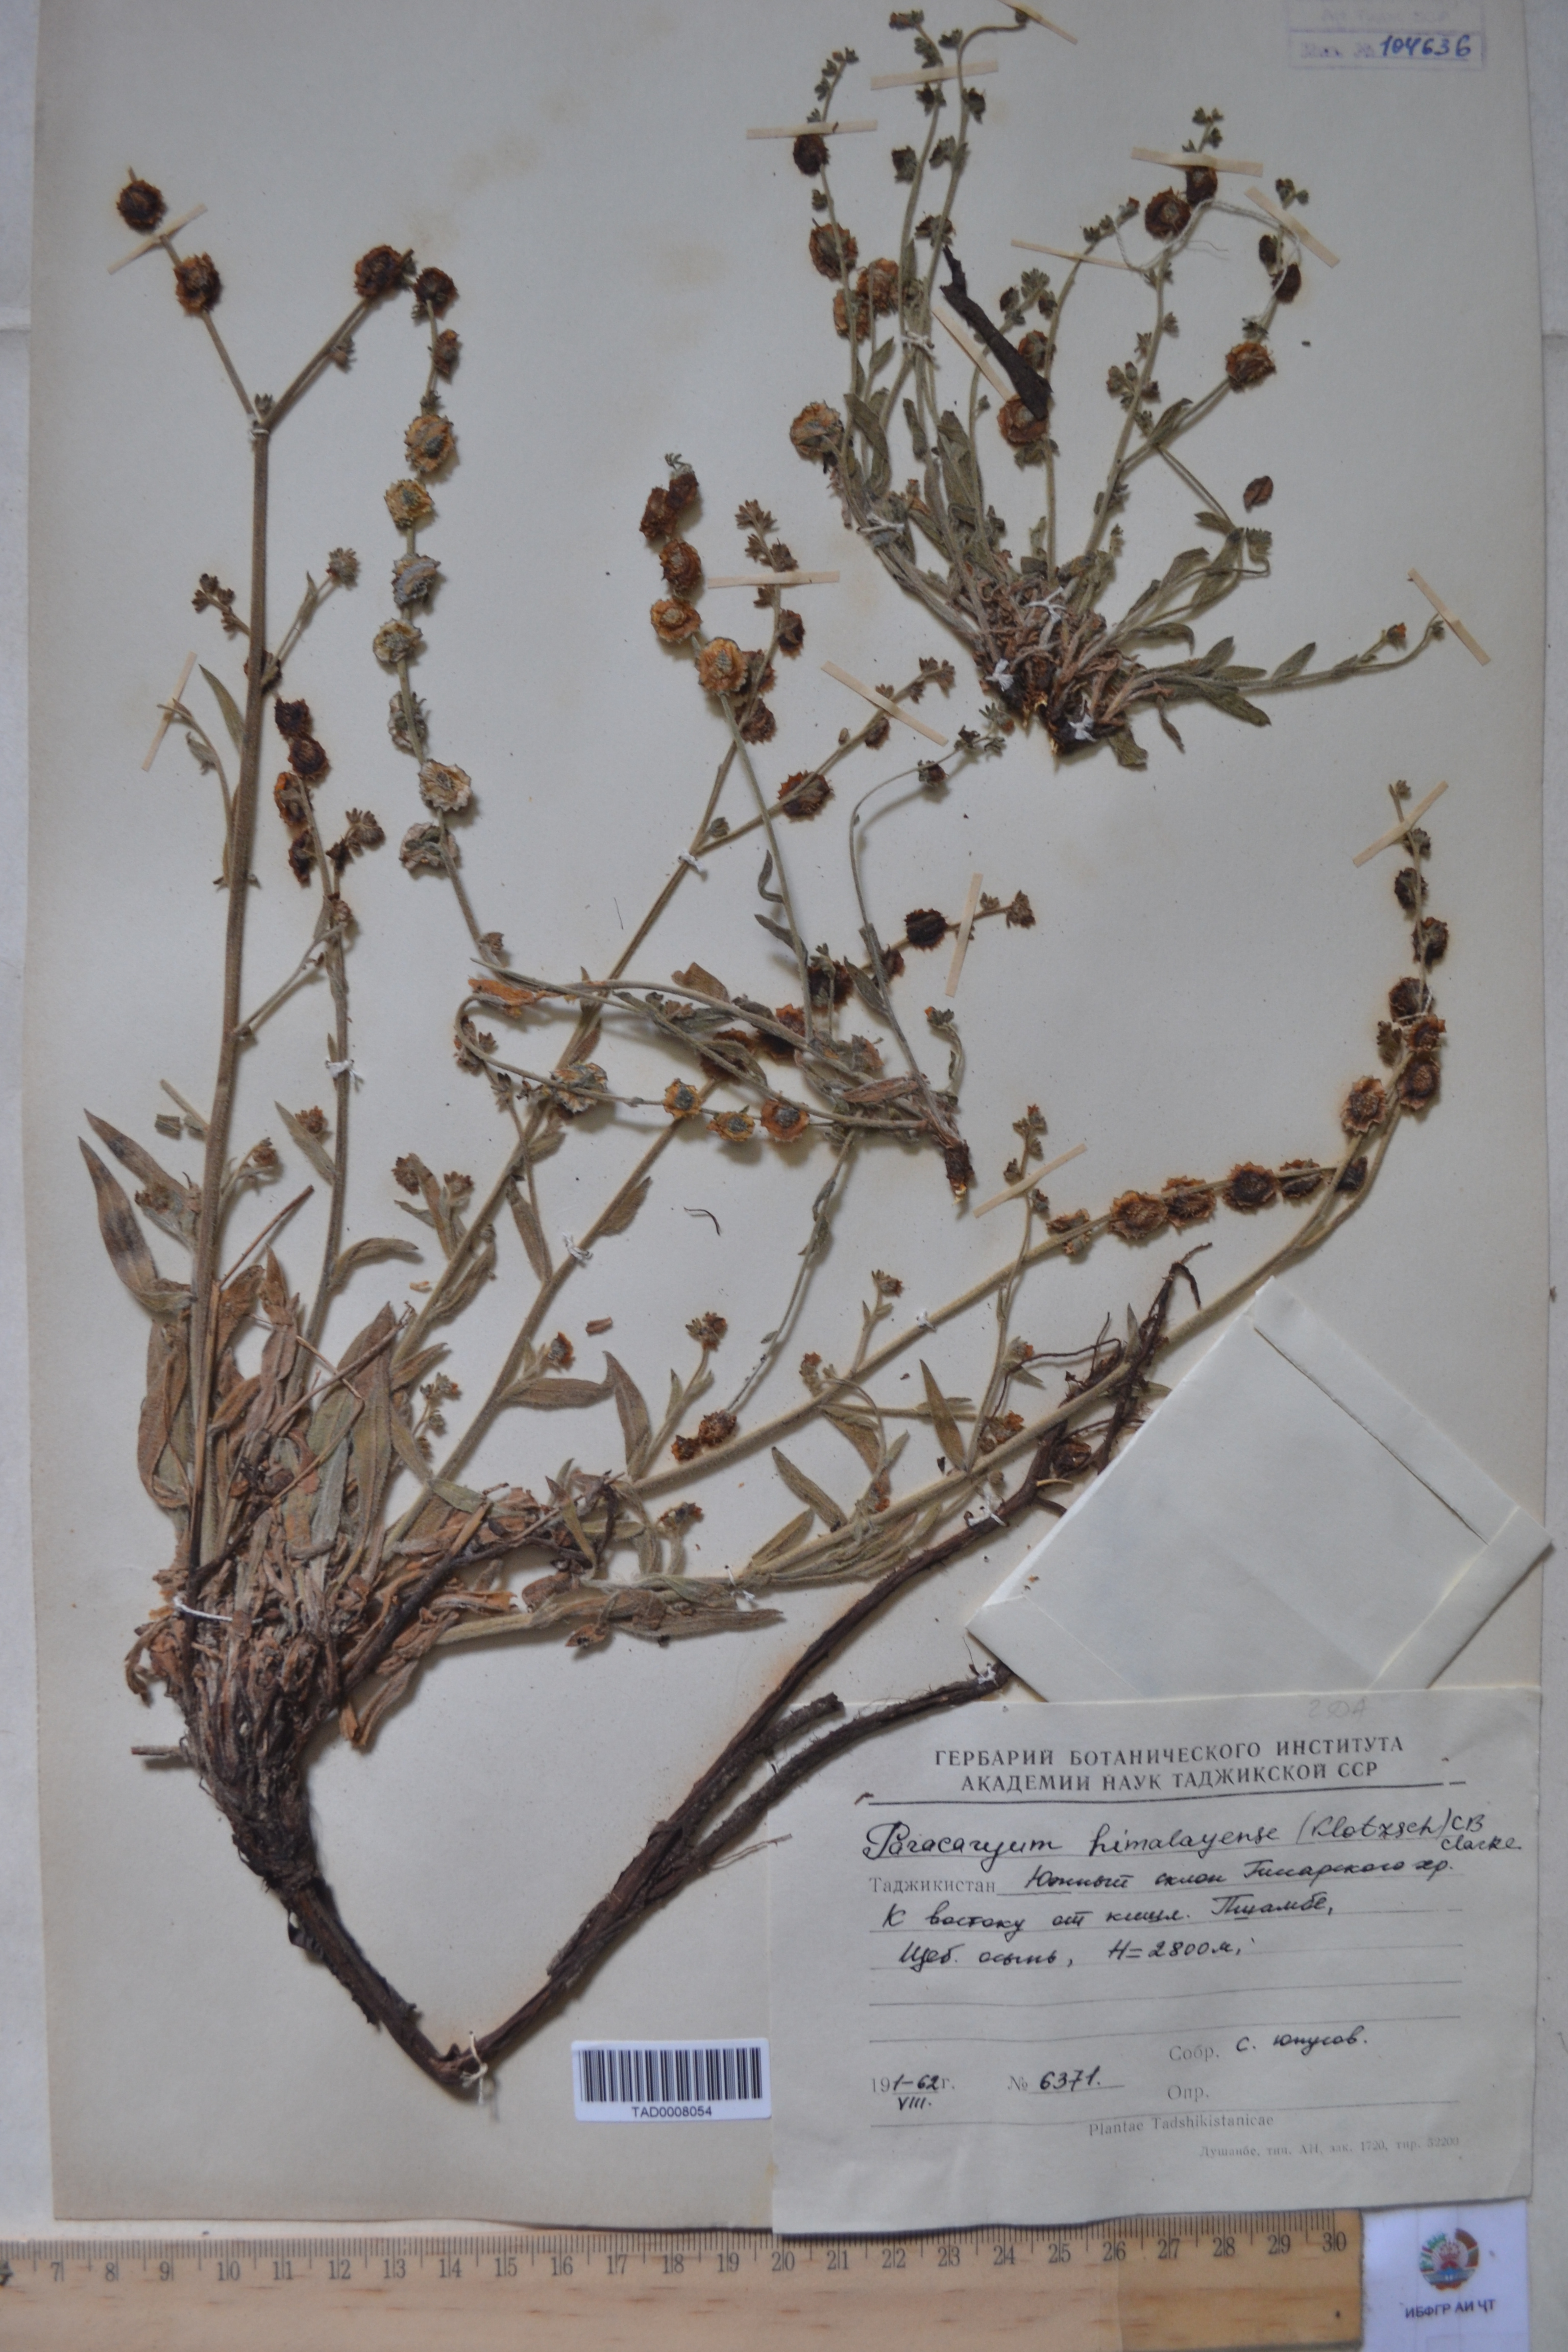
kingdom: Plantae
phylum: Tracheophyta
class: Magnoliopsida
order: Boraginales
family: Boraginaceae
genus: Paracaryum
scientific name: Paracaryum himalayense
